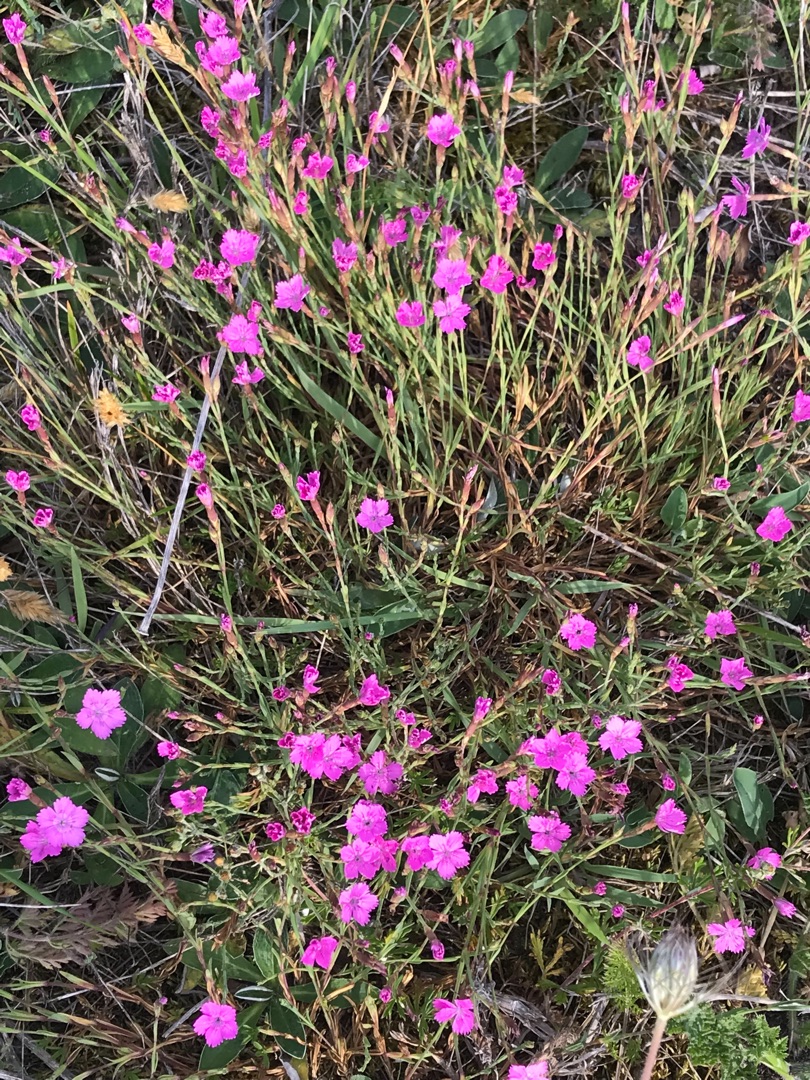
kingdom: Plantae
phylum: Tracheophyta
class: Magnoliopsida
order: Caryophyllales
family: Caryophyllaceae
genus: Dianthus
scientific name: Dianthus deltoides
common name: Bakke-nellike
